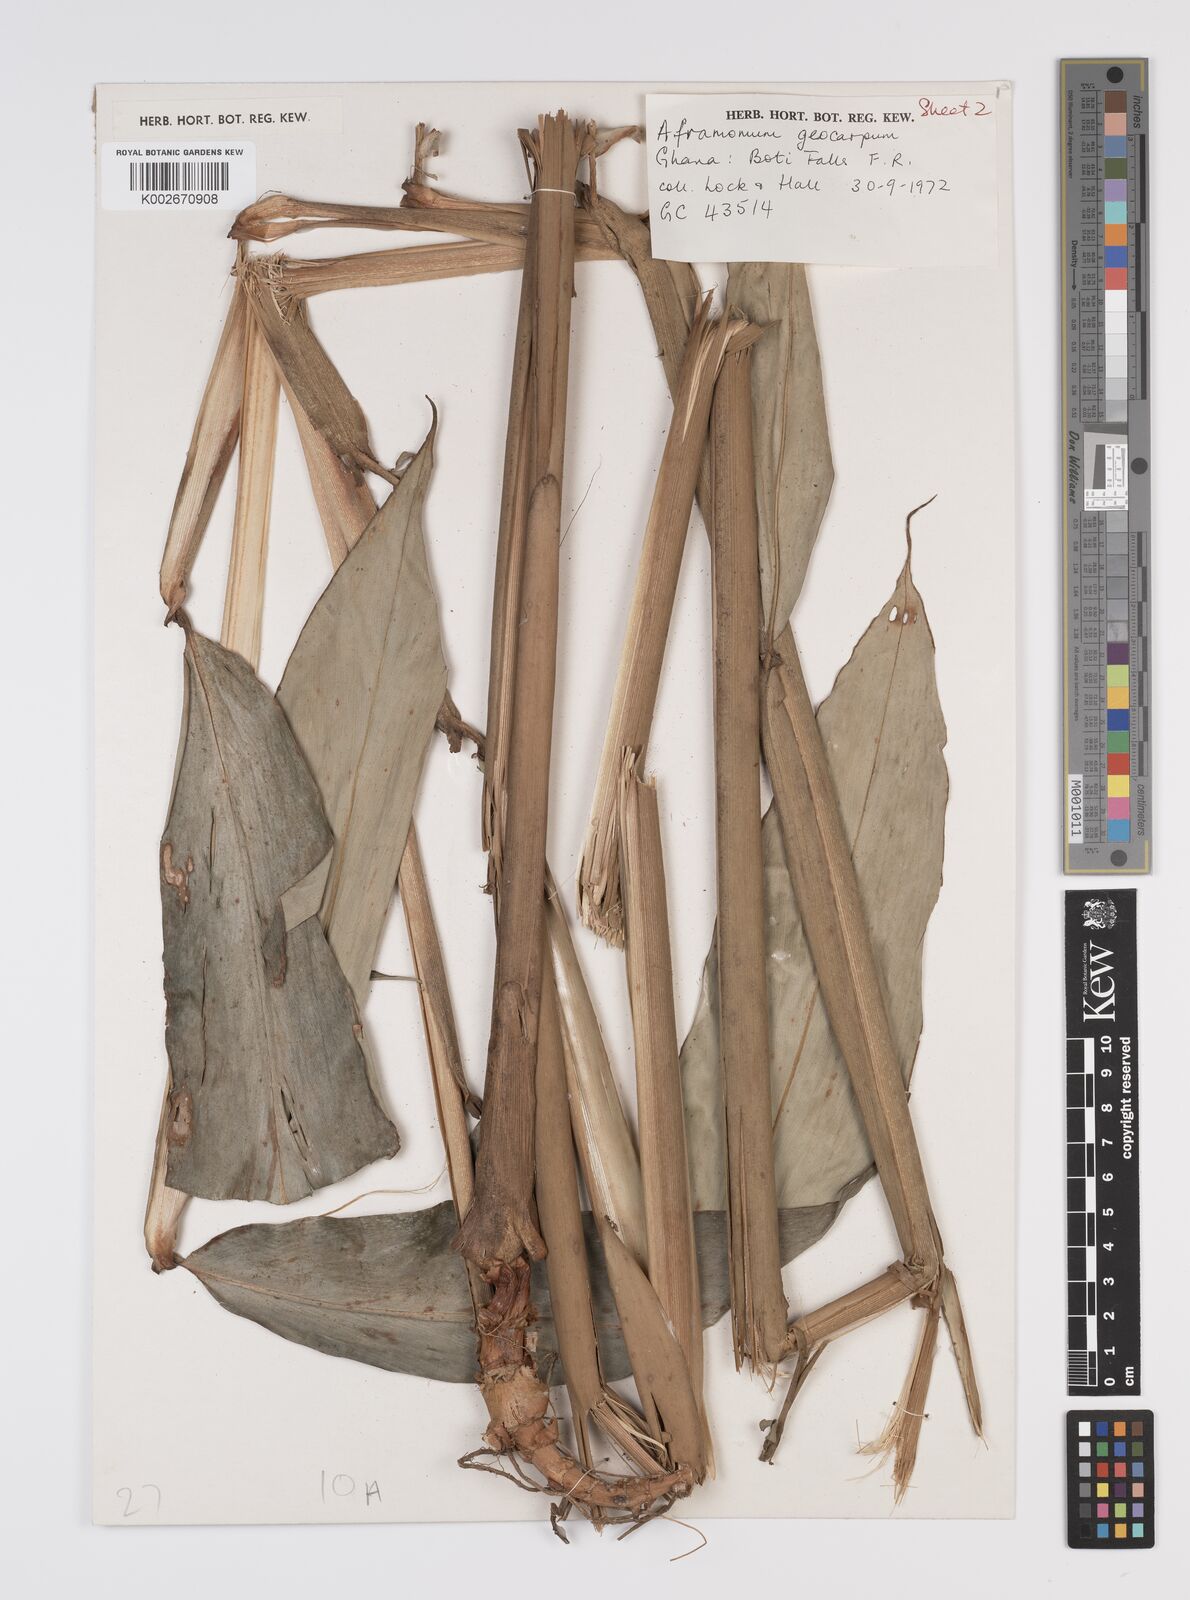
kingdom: Plantae
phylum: Tracheophyta
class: Liliopsida
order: Zingiberales
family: Zingiberaceae
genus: Aframomum
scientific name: Aframomum limbatum
